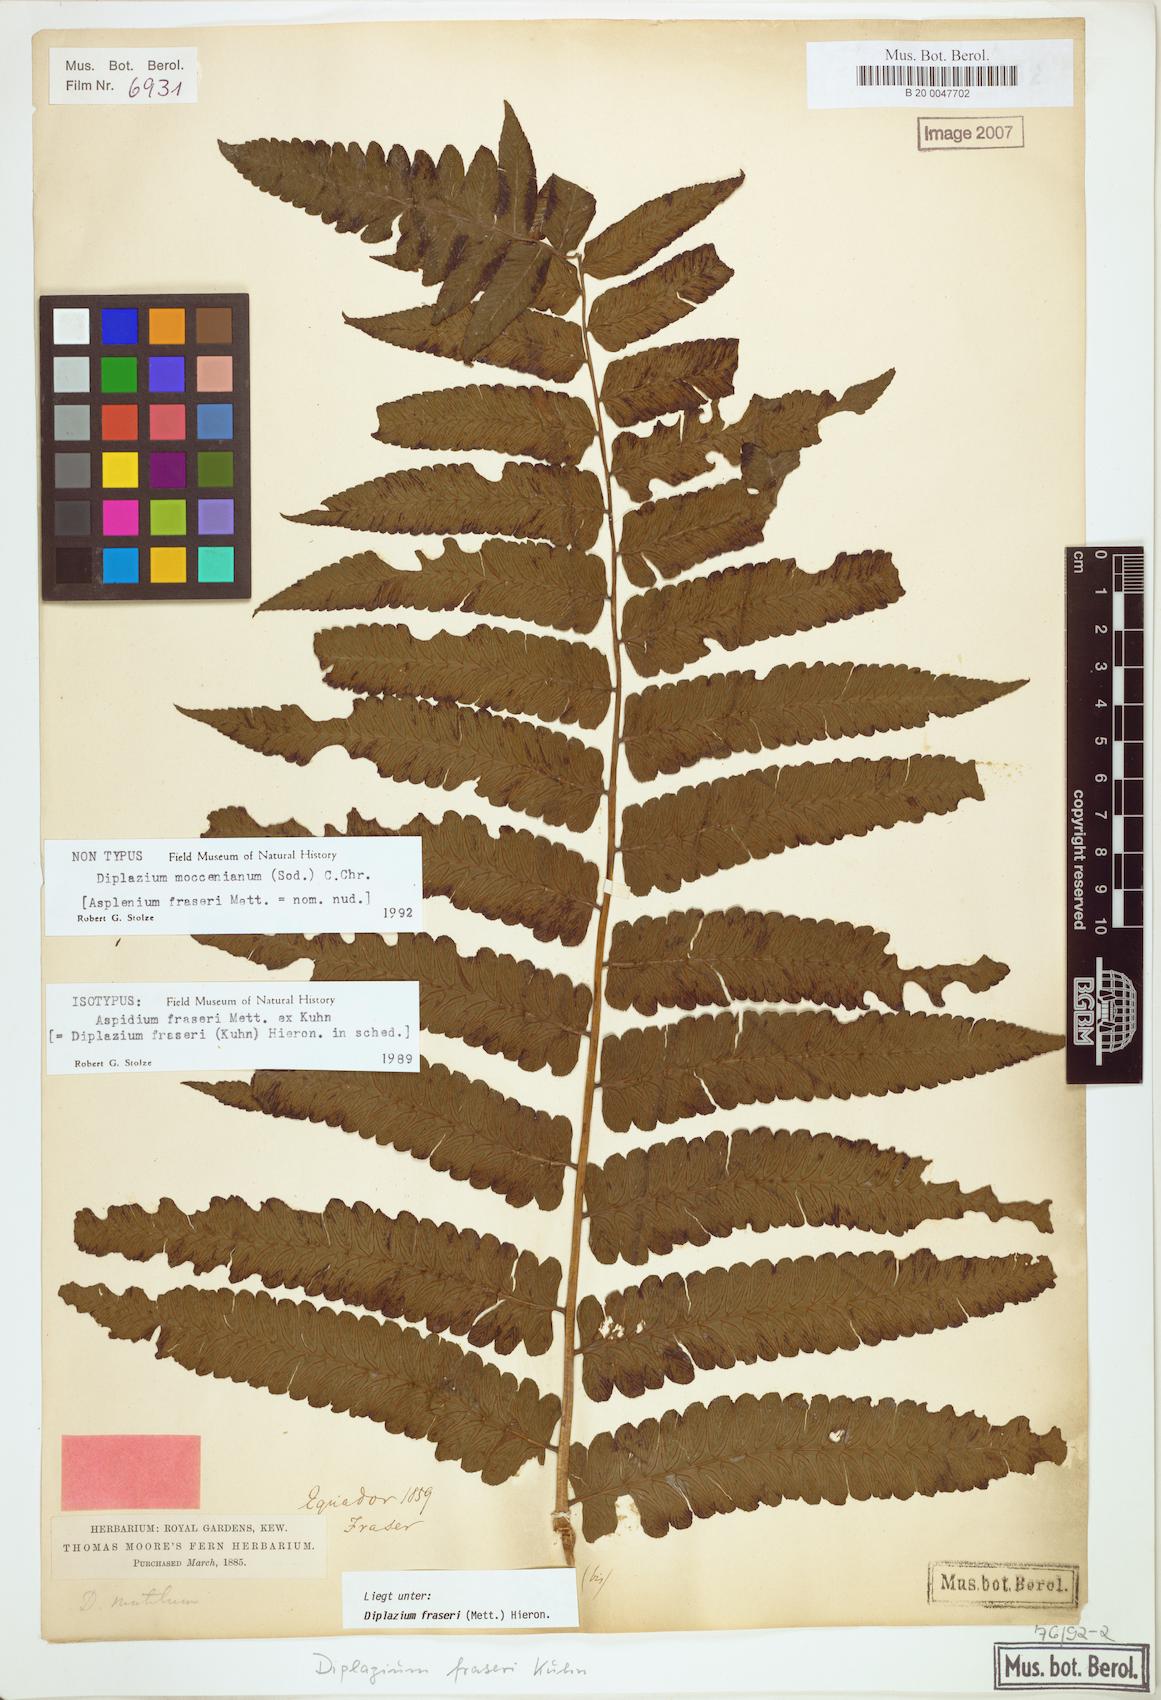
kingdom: Plantae
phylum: Tracheophyta
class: Polypodiopsida
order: Polypodiales
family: Athyriaceae
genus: Diplazium
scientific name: Diplazium moccennianum
